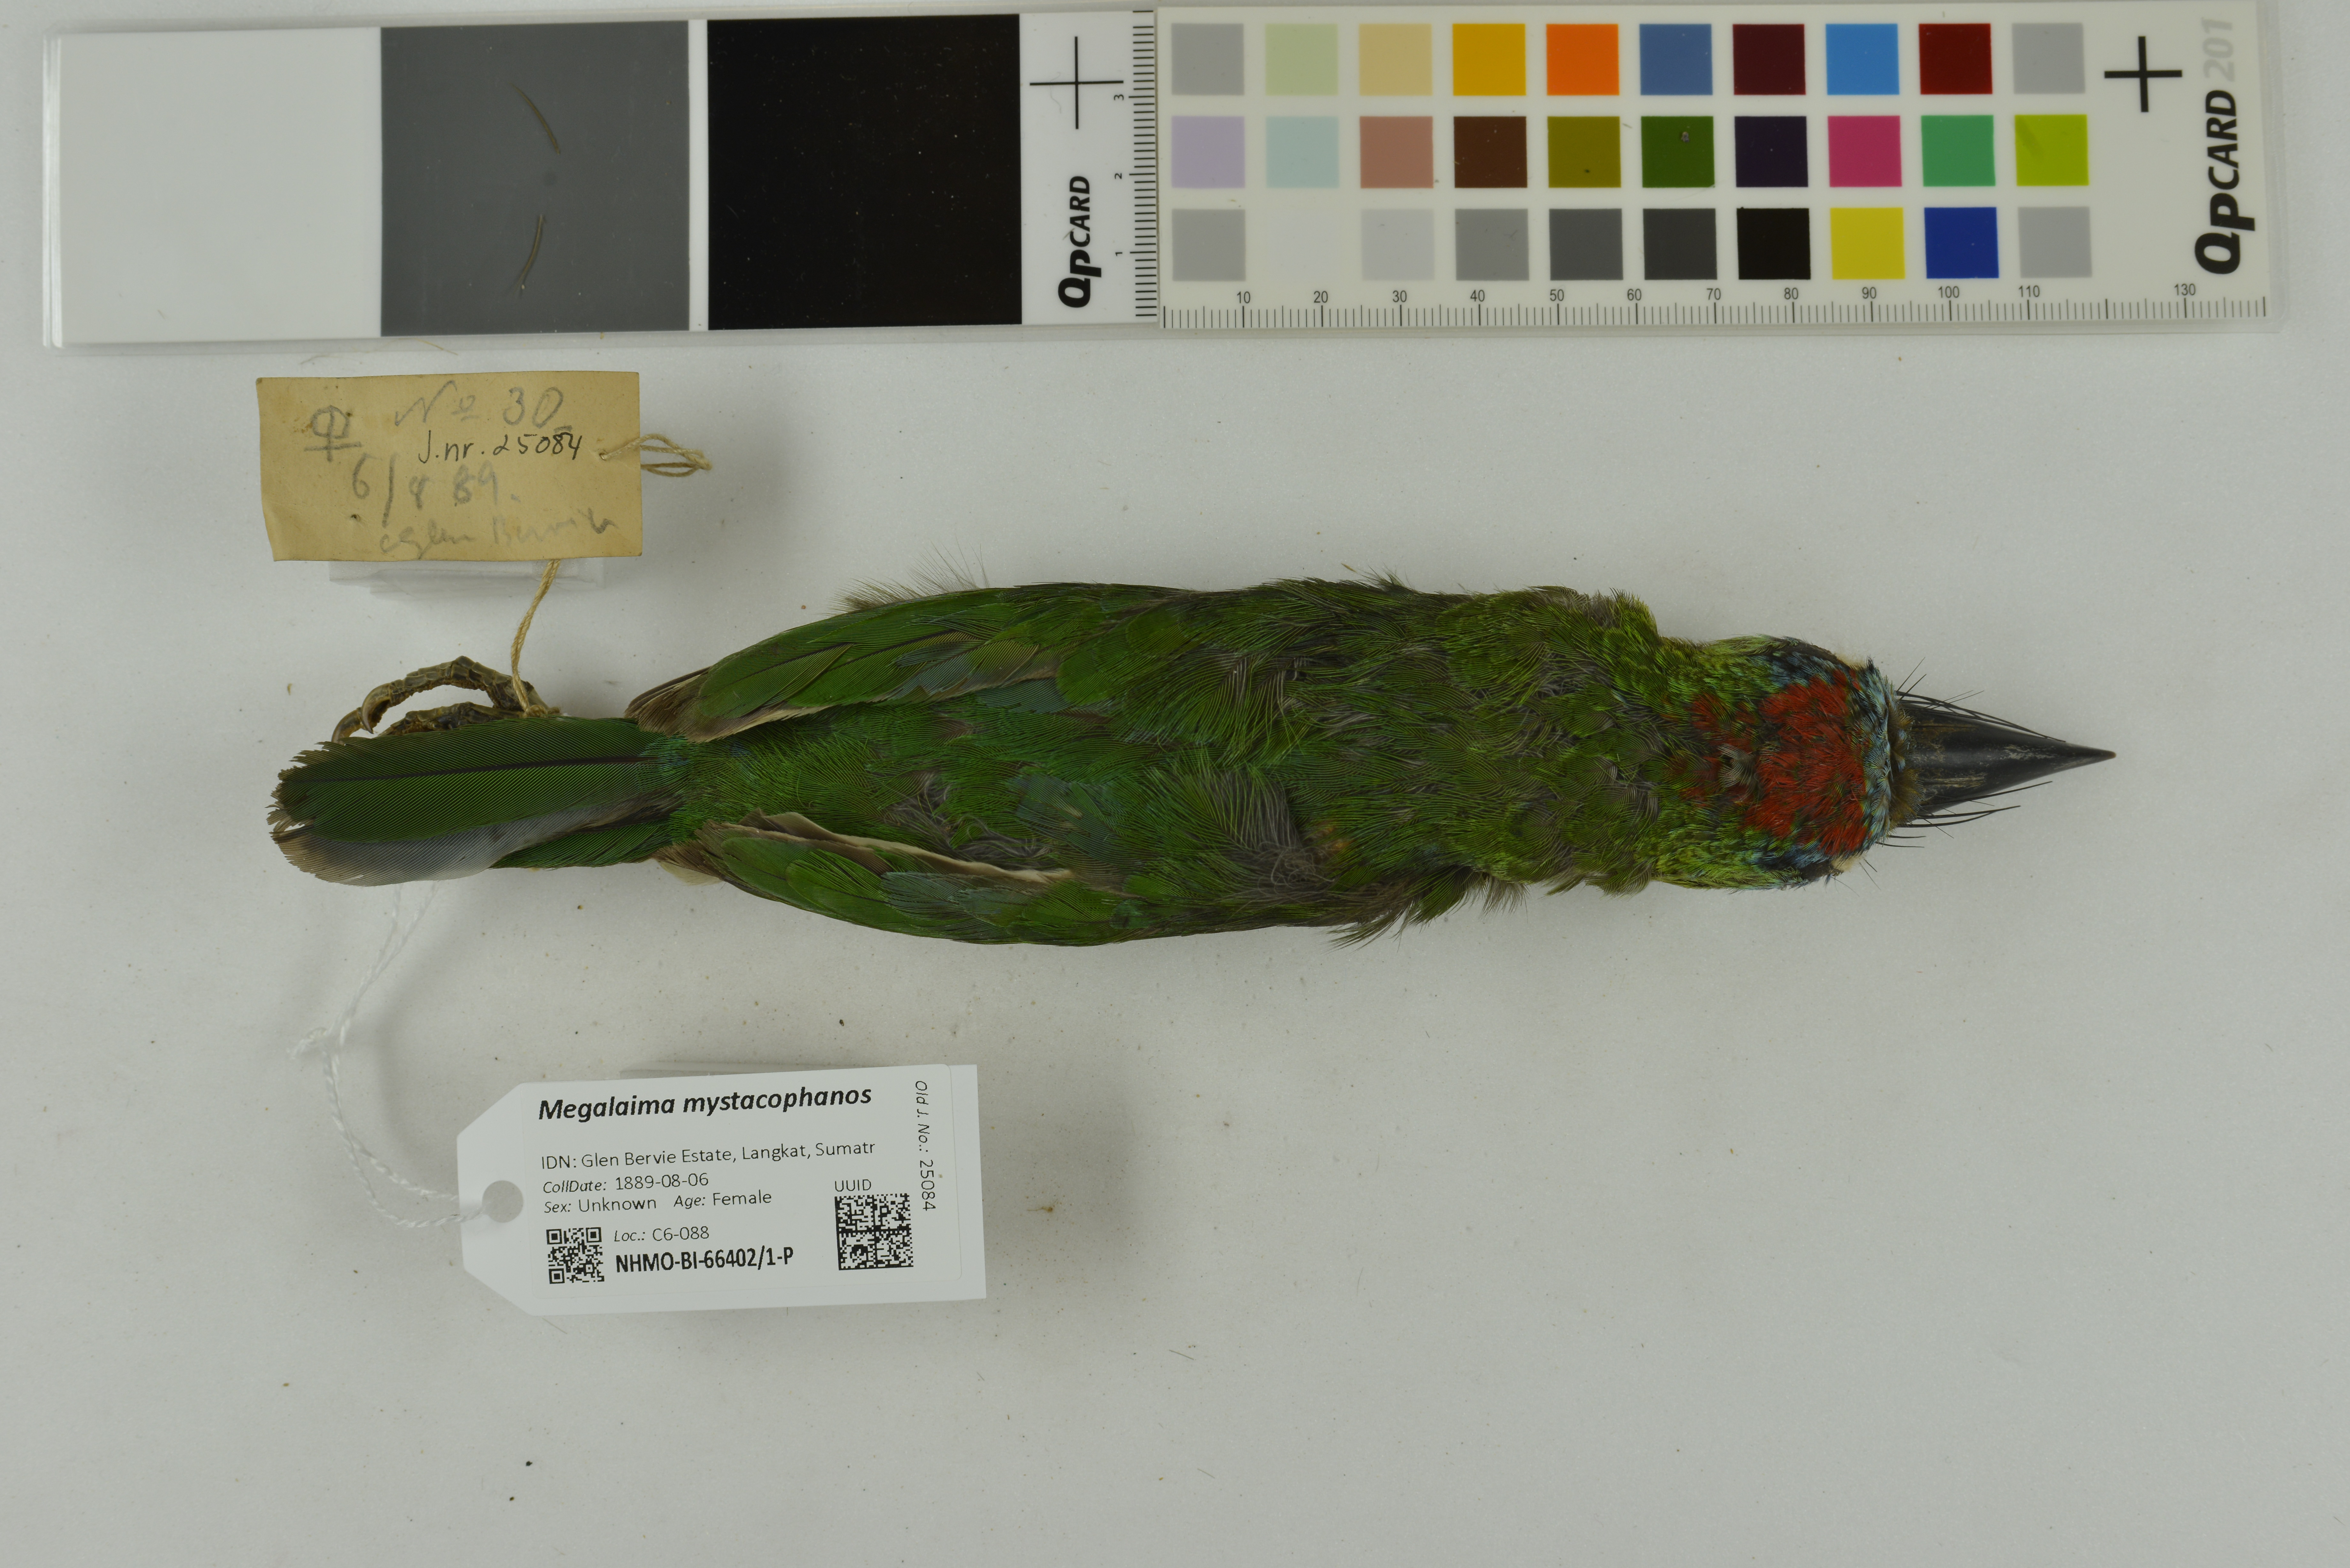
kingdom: Animalia
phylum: Chordata
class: Aves
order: Piciformes
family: Megalaimidae
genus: Psilopogon
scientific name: Psilopogon mystacophanos
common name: Red-throated barbet
